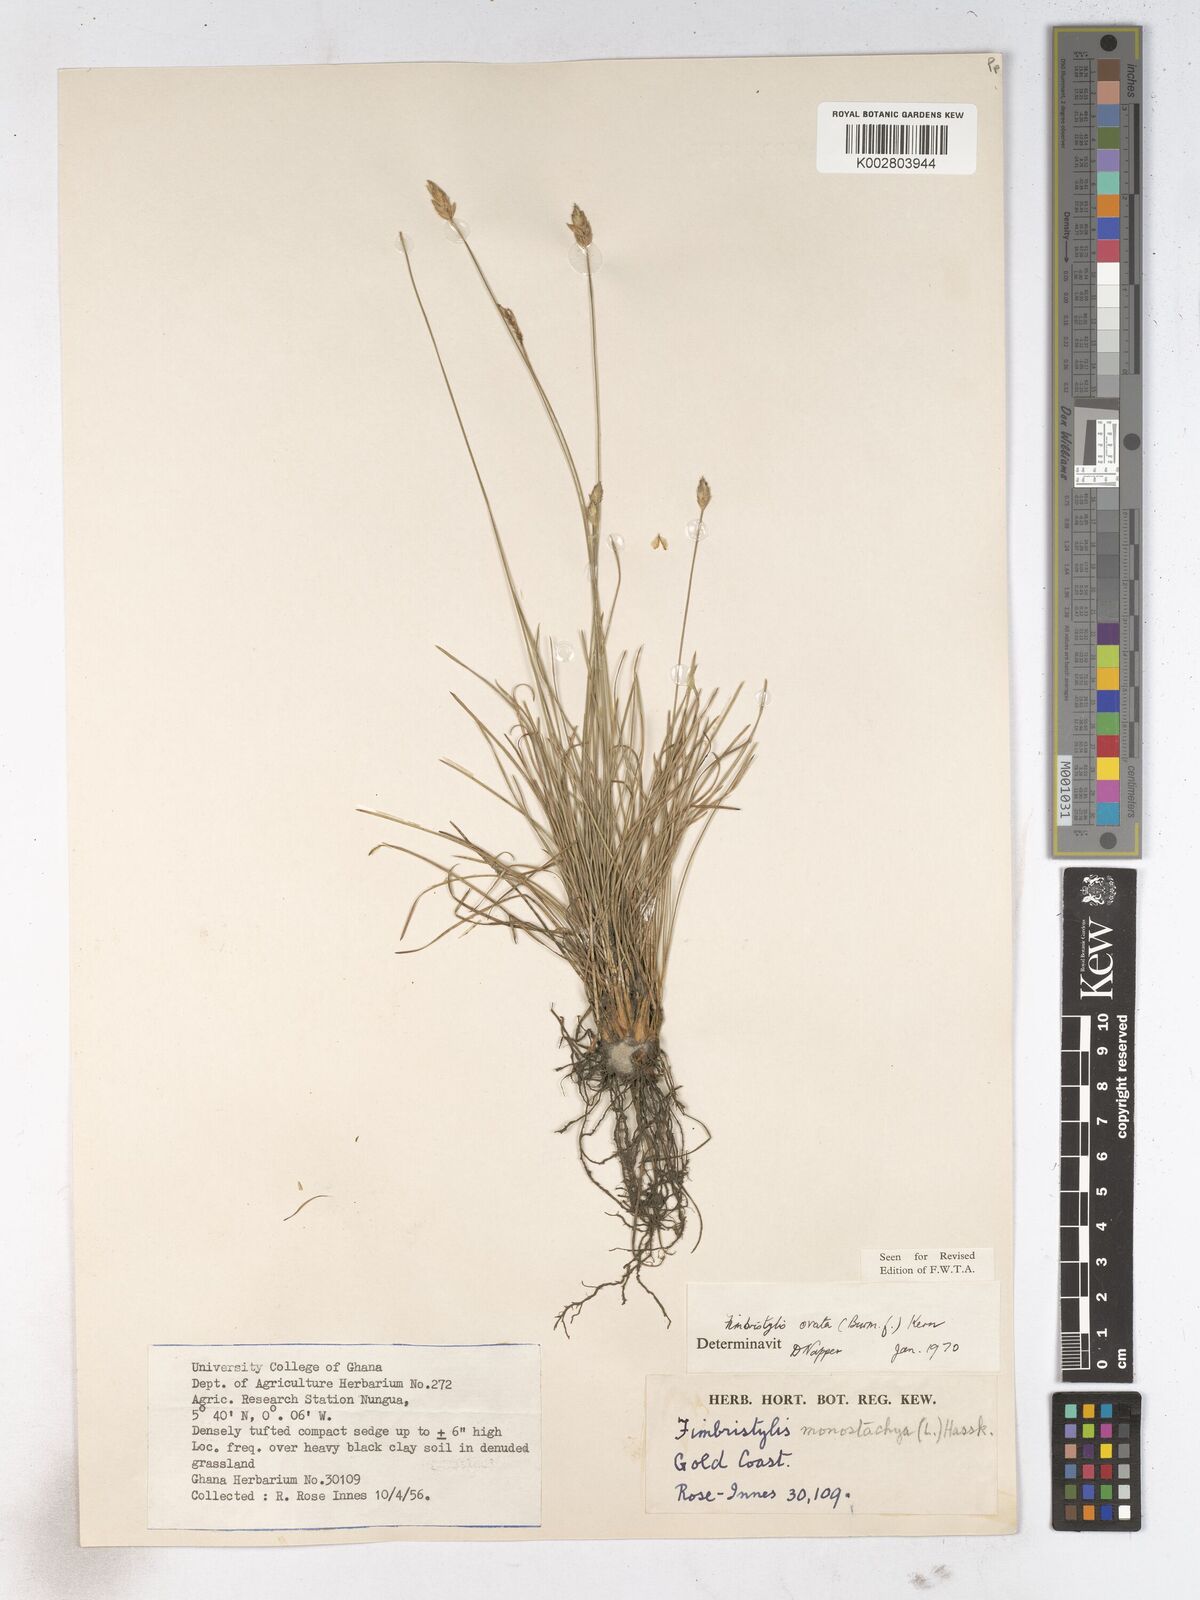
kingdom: Plantae
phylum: Tracheophyta
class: Liliopsida
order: Poales
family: Cyperaceae
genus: Abildgaardia
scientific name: Abildgaardia ovata
